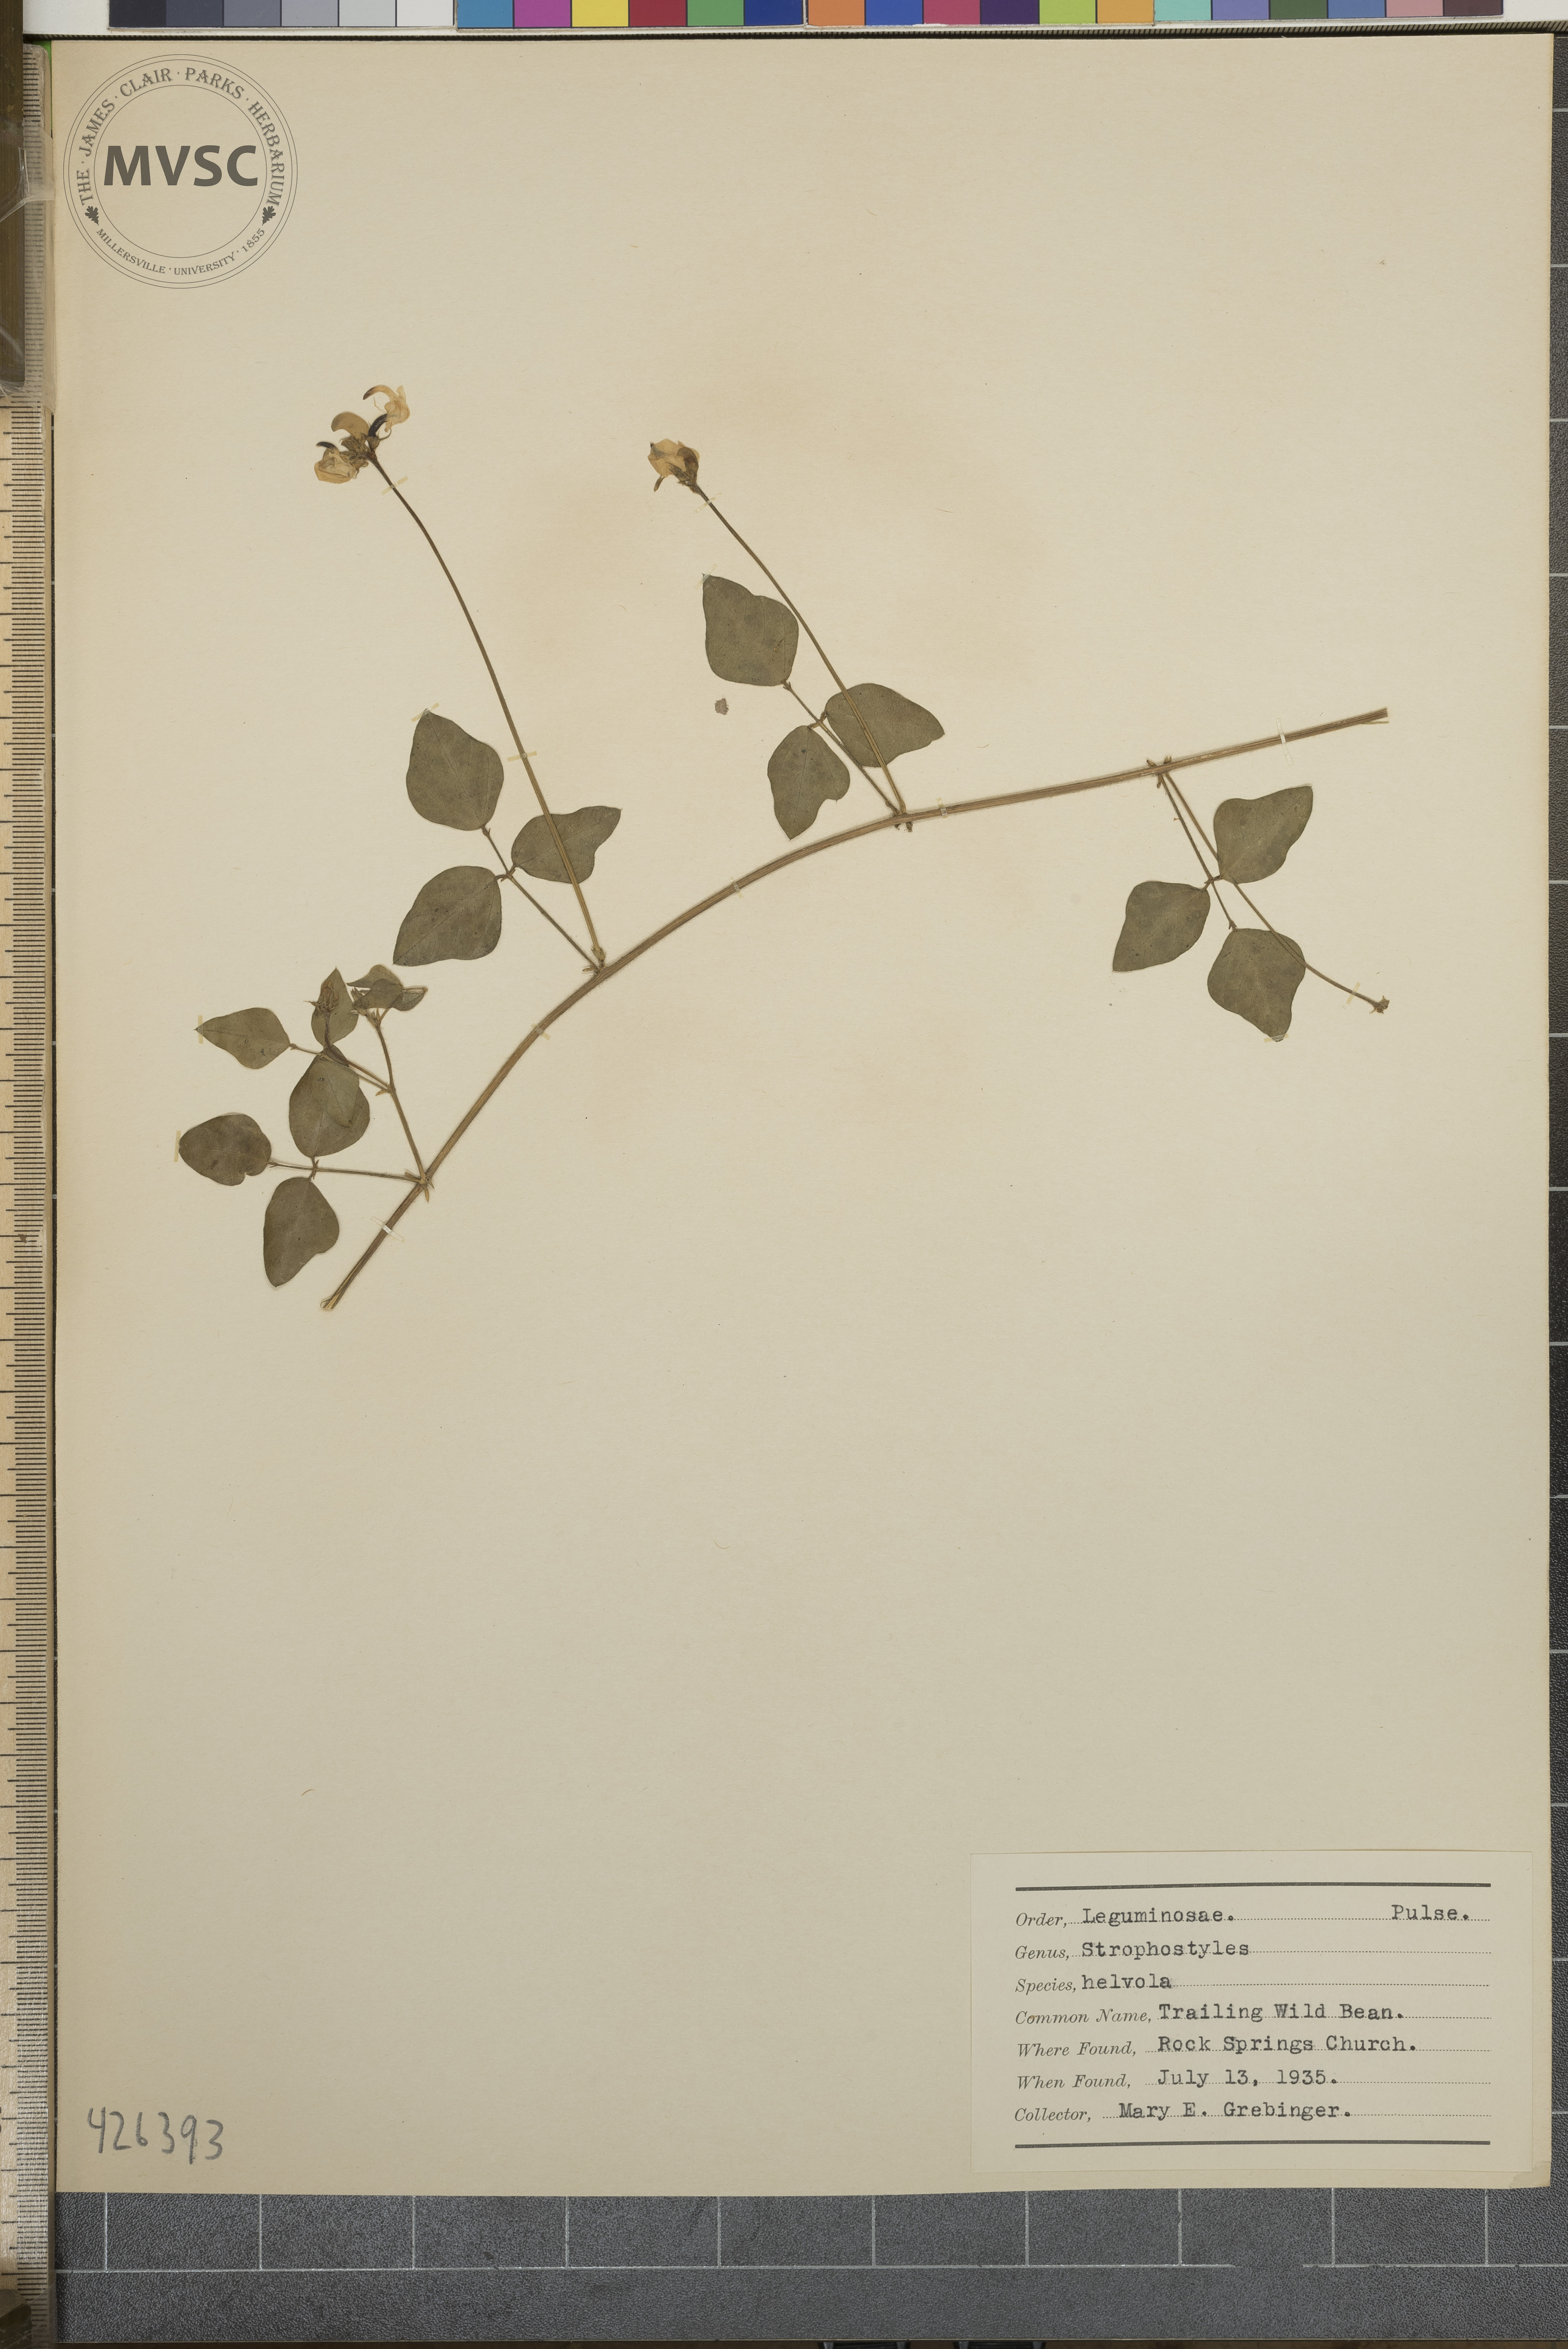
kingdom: Plantae
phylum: Tracheophyta
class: Magnoliopsida
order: Fabales
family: Fabaceae
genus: Strophostyles
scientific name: Strophostyles helvola
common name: Trailing wild bean
